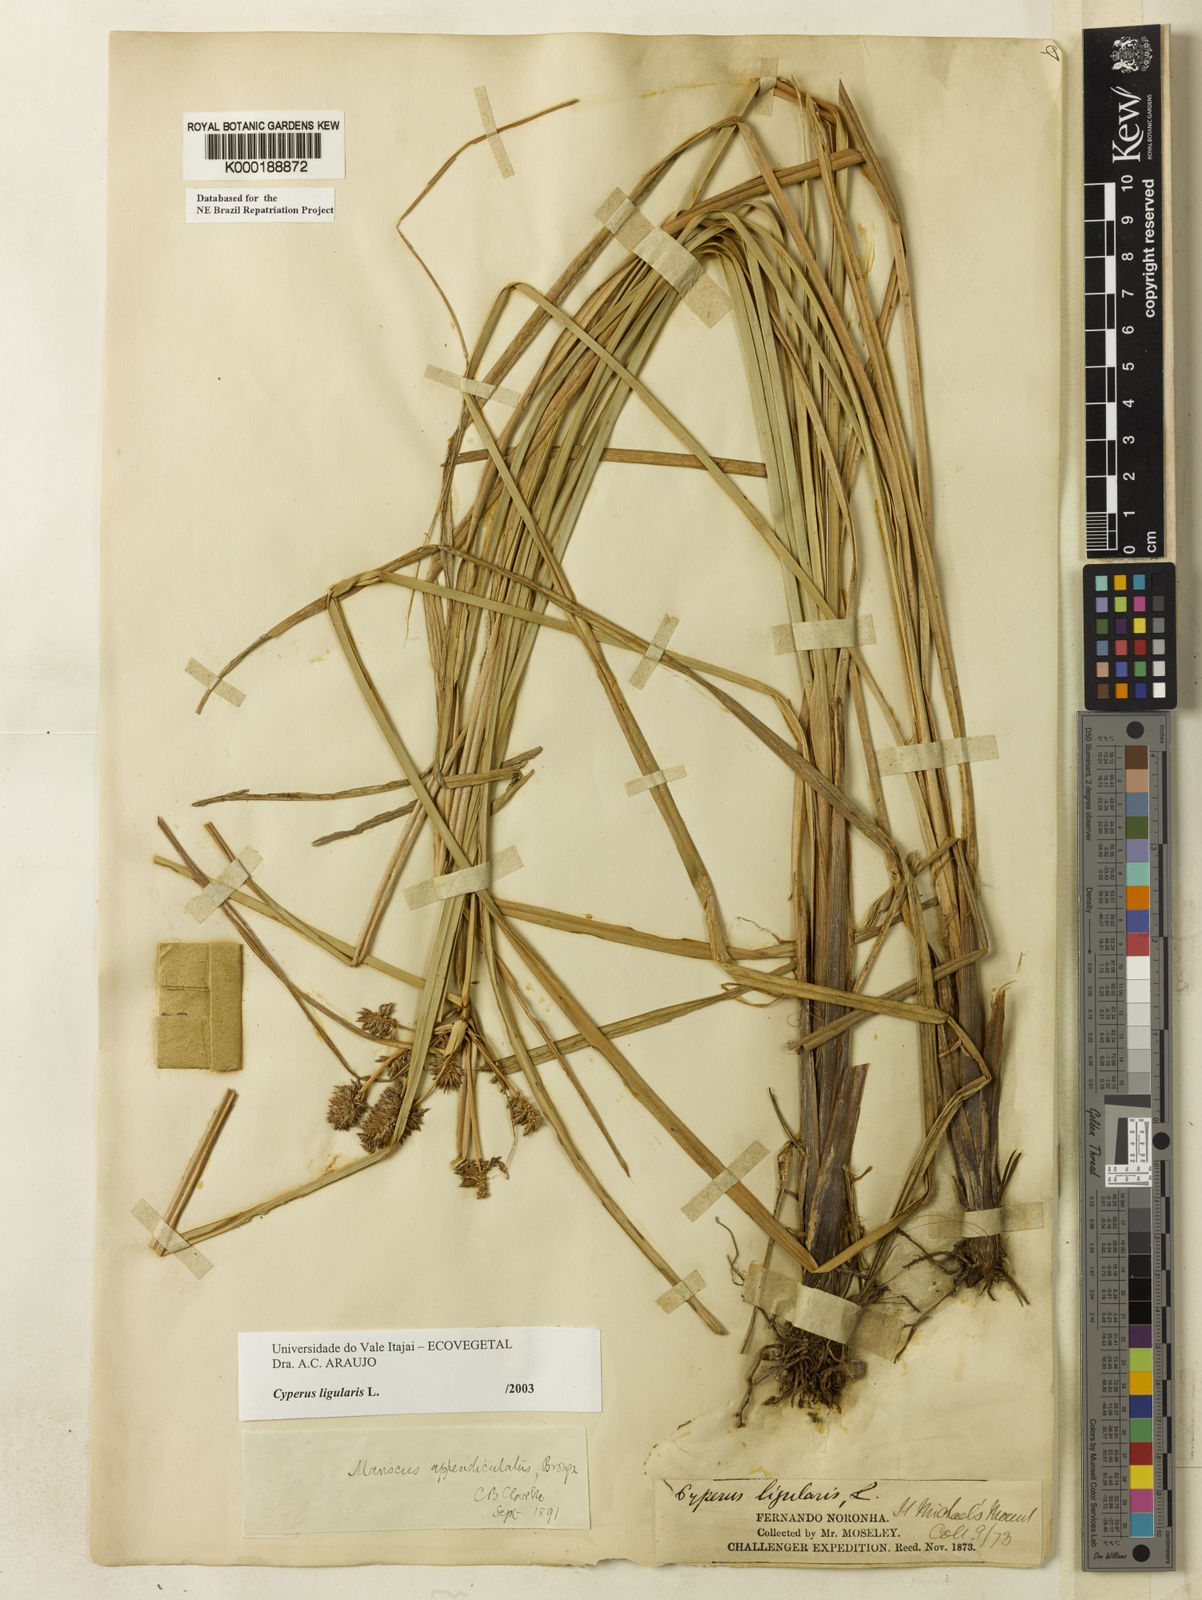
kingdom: Plantae
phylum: Tracheophyta
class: Liliopsida
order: Poales
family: Cyperaceae
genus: Cyperus
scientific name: Cyperus ligularis
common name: Swamp flat sedge
